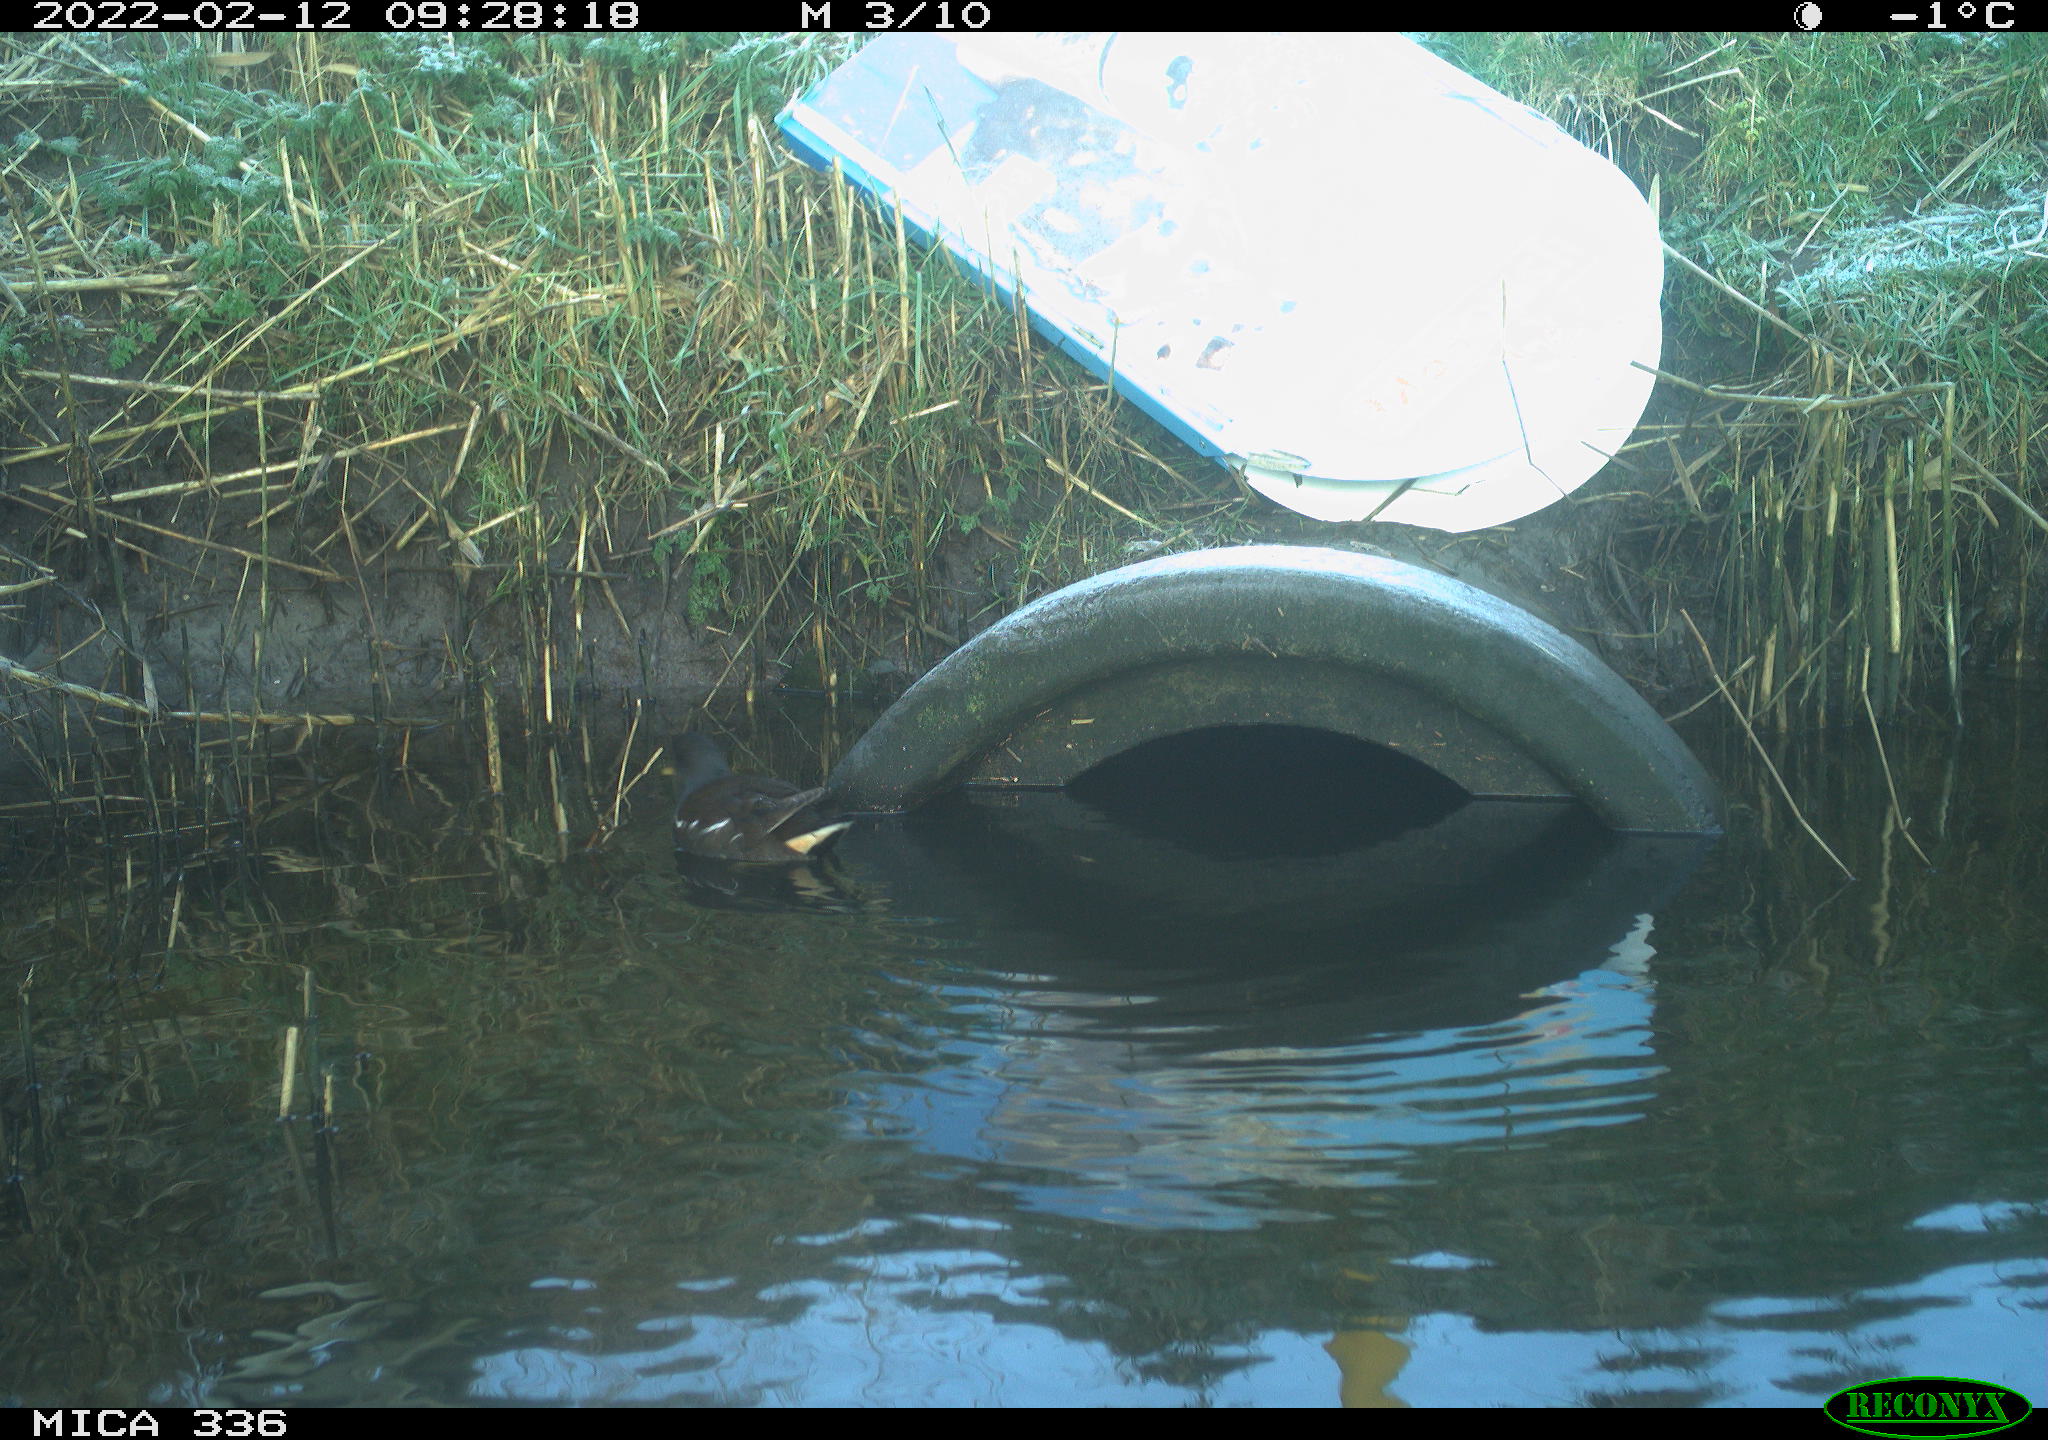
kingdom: Animalia
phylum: Chordata
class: Aves
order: Gruiformes
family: Rallidae
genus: Gallinula
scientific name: Gallinula chloropus
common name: Common moorhen
